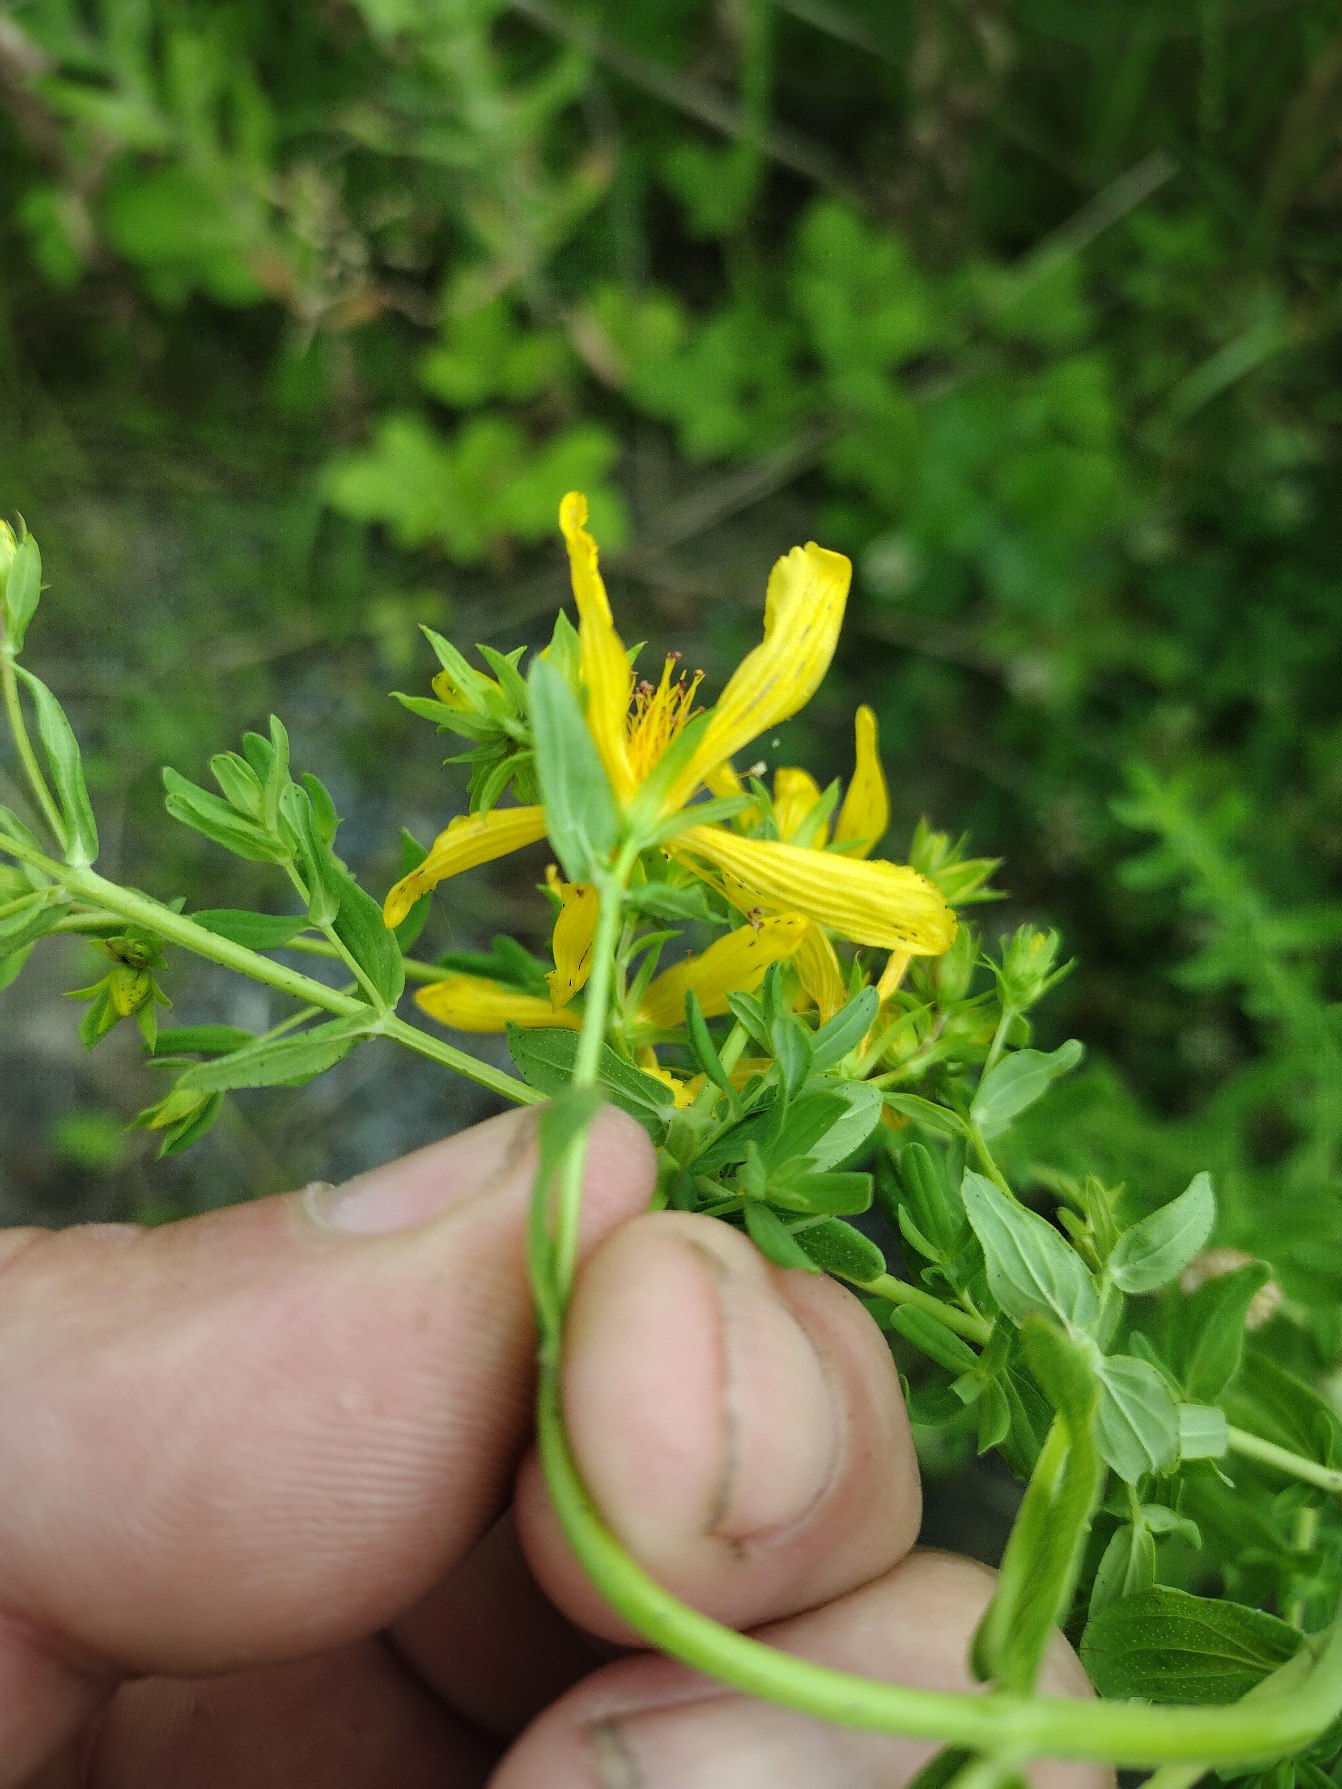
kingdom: Plantae
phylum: Tracheophyta
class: Magnoliopsida
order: Malpighiales
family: Hypericaceae
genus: Hypericum
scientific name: Hypericum perforatum
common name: Prikbladet perikon
